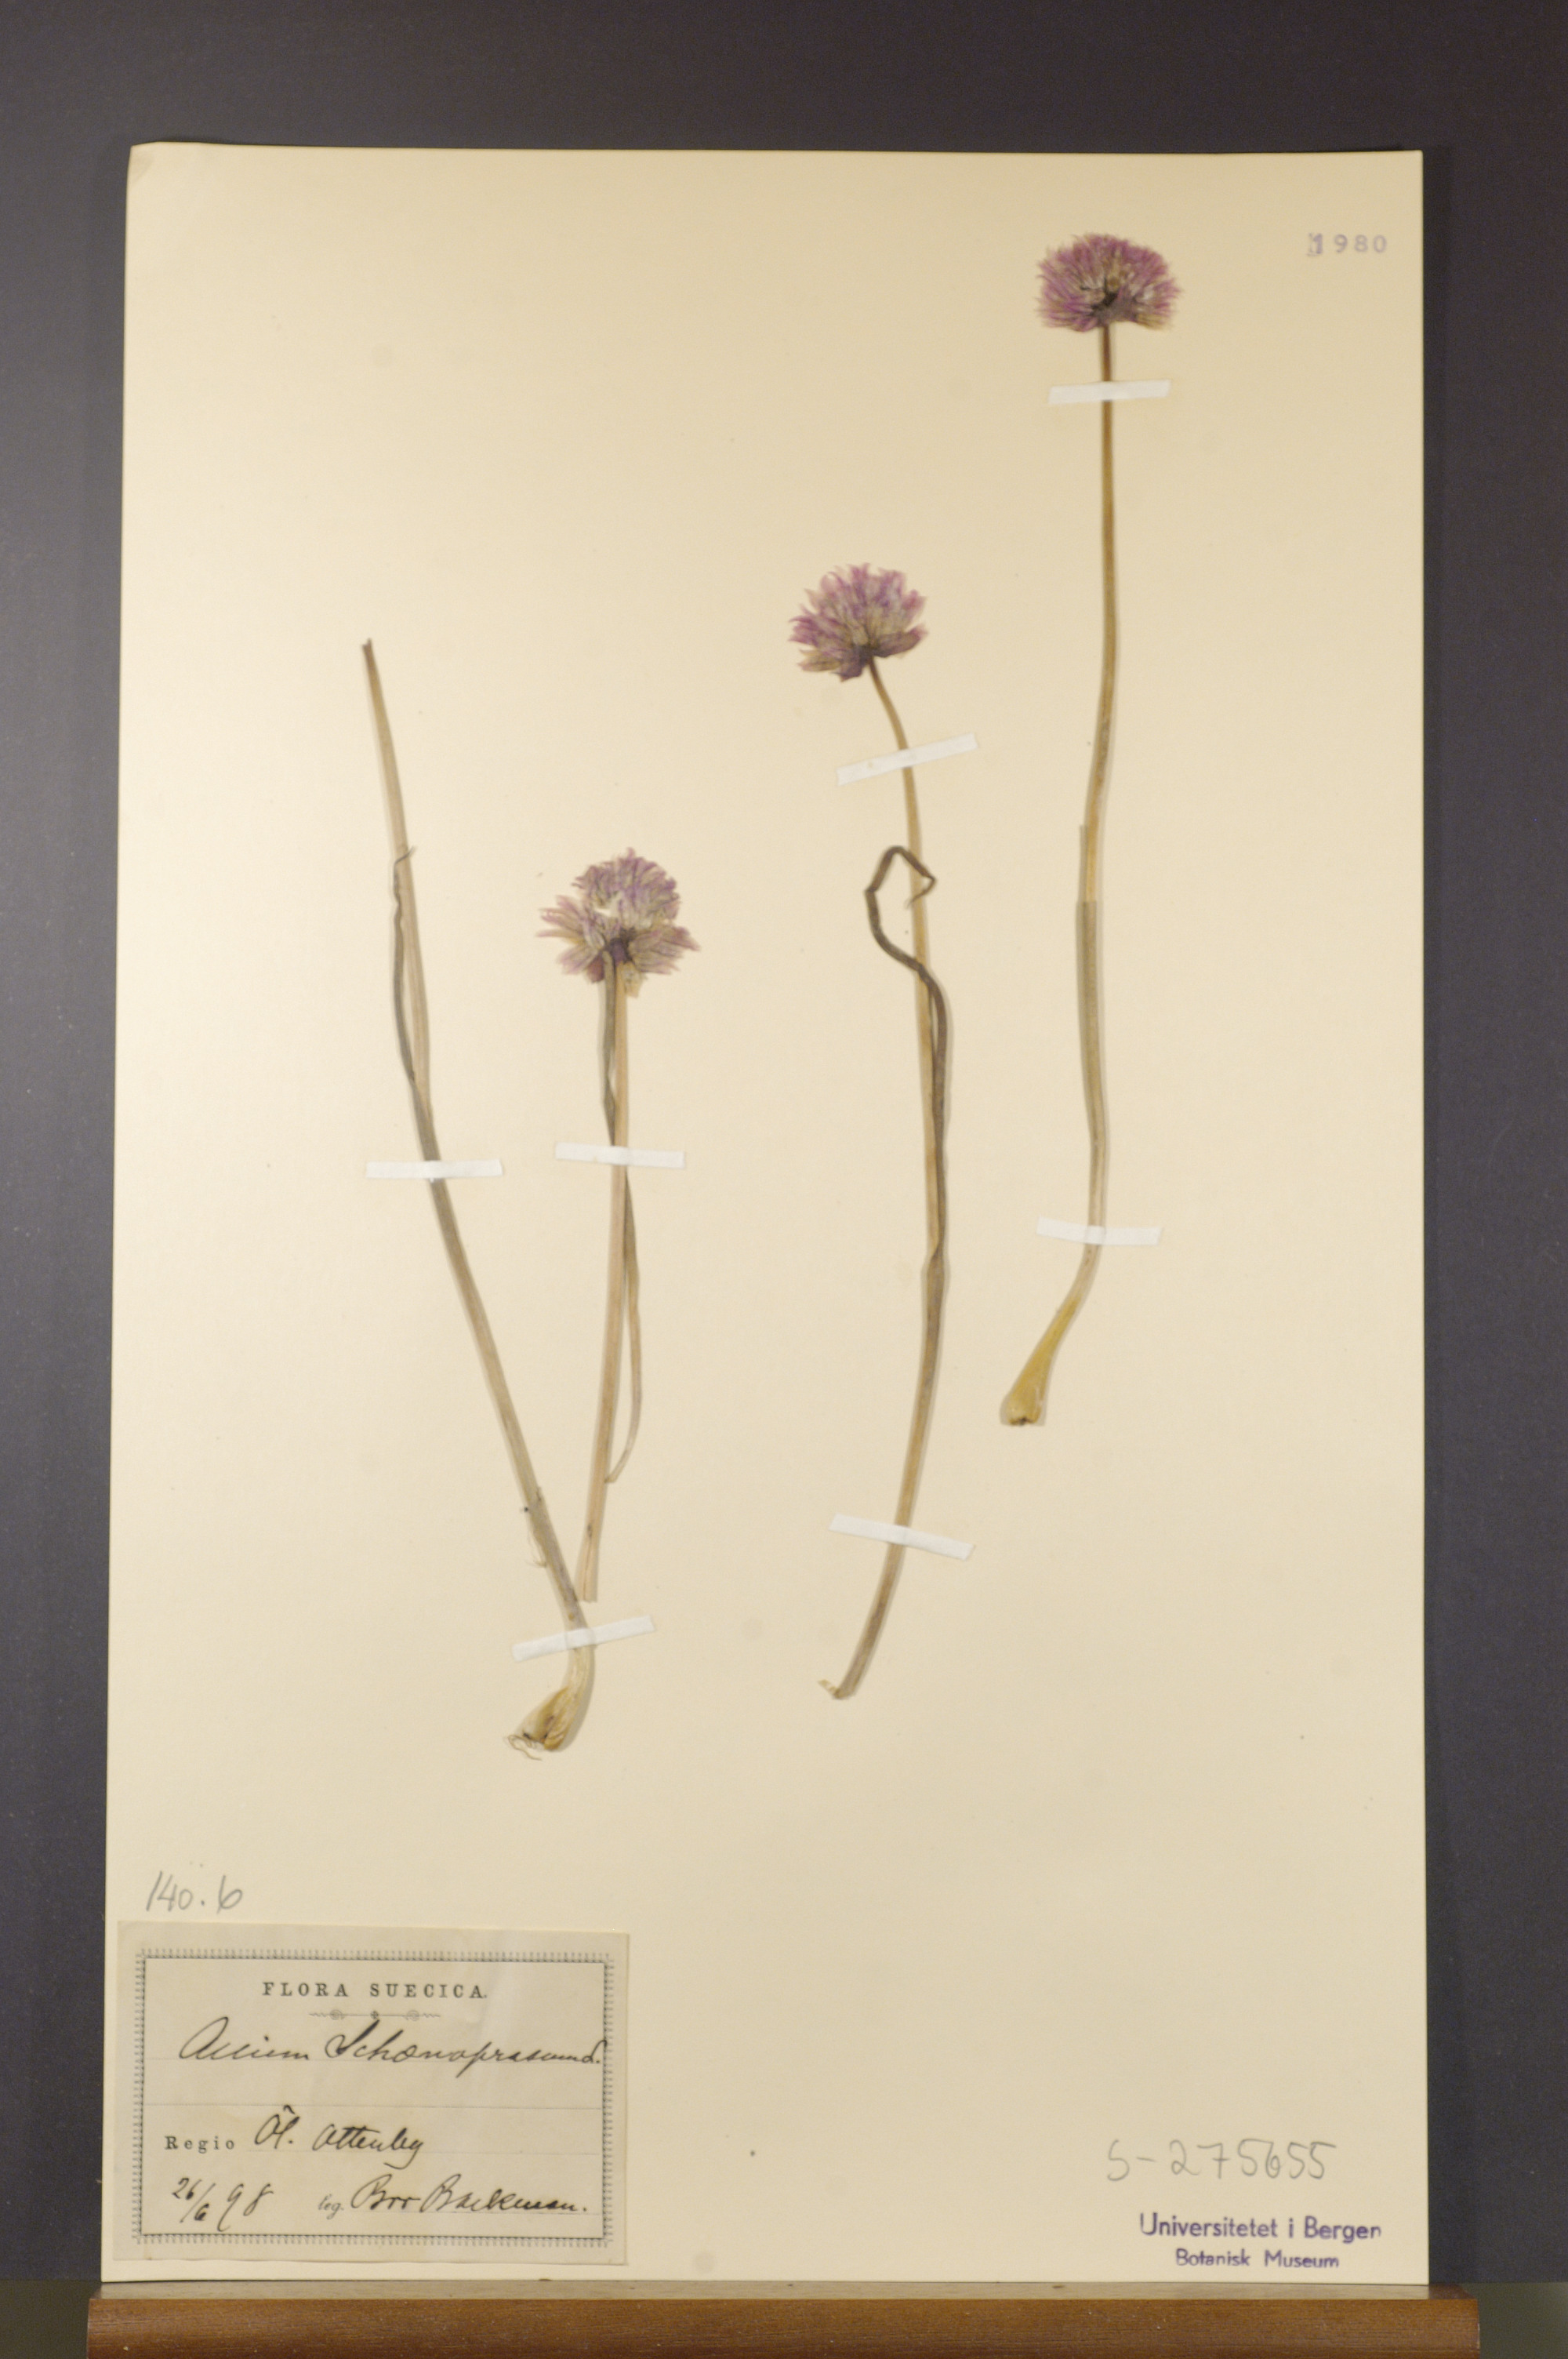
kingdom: Plantae
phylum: Tracheophyta
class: Liliopsida
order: Asparagales
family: Amaryllidaceae
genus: Allium
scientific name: Allium schoenoprasum
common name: Chives
